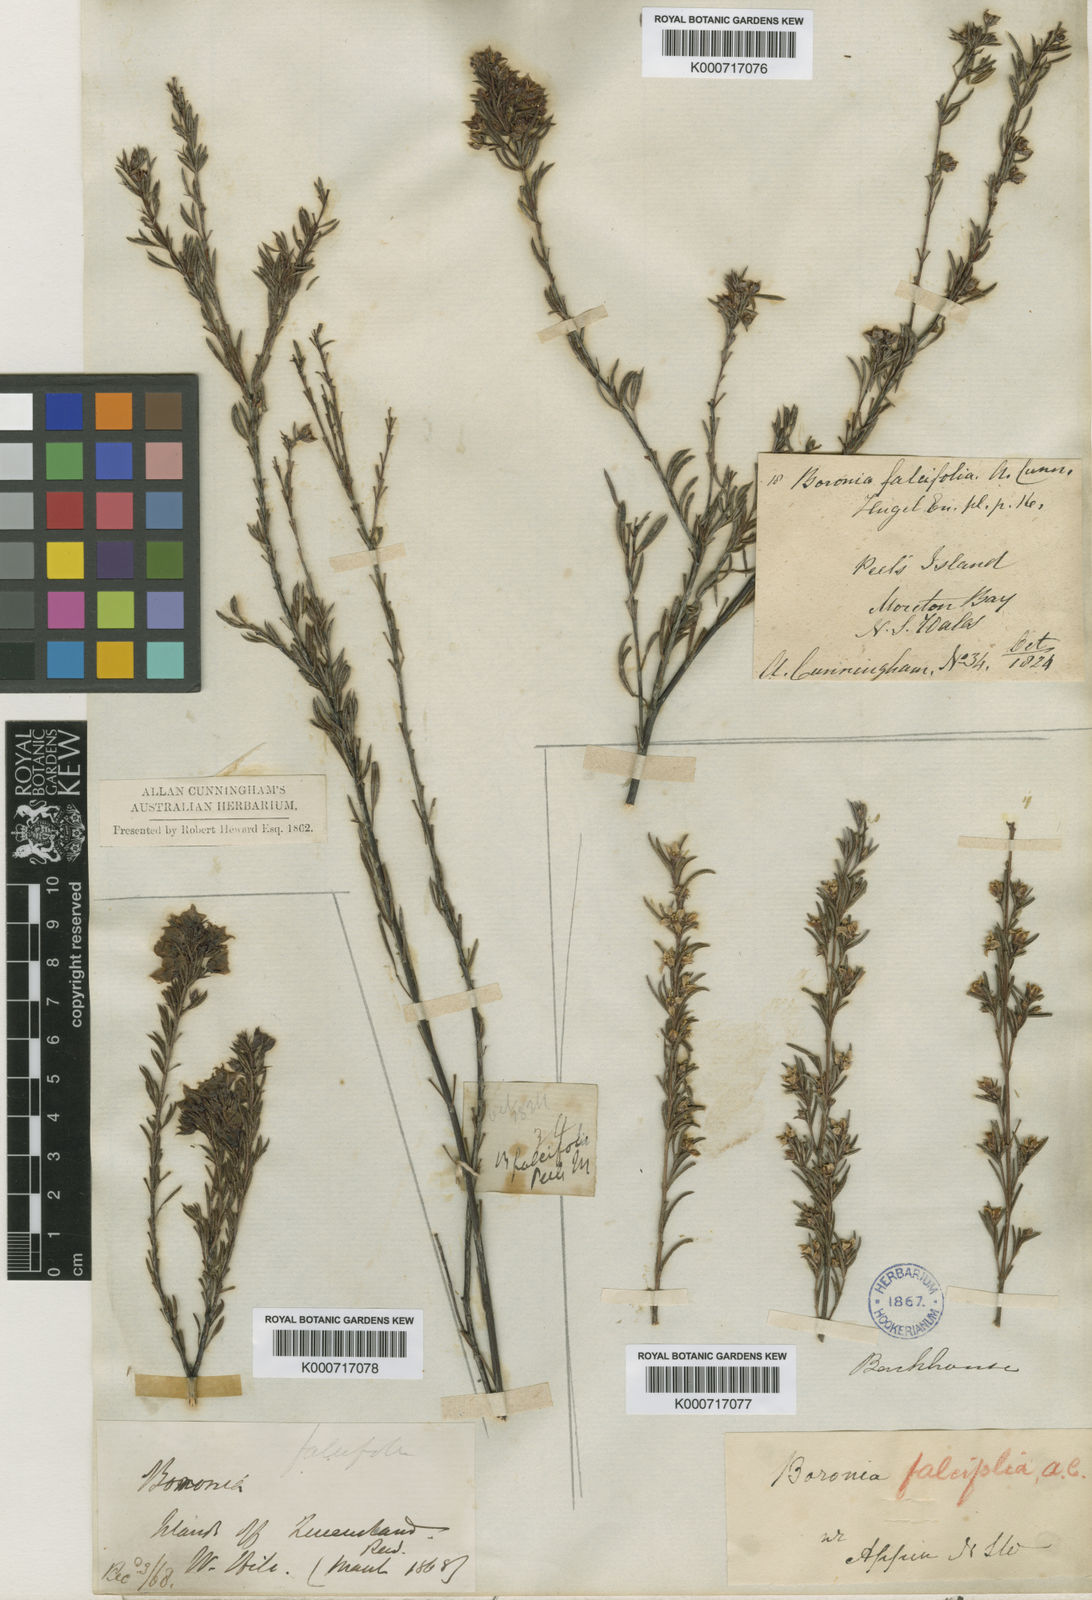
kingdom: Plantae
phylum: Tracheophyta
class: Magnoliopsida
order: Sapindales
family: Rutaceae
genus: Boronia
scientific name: Boronia
